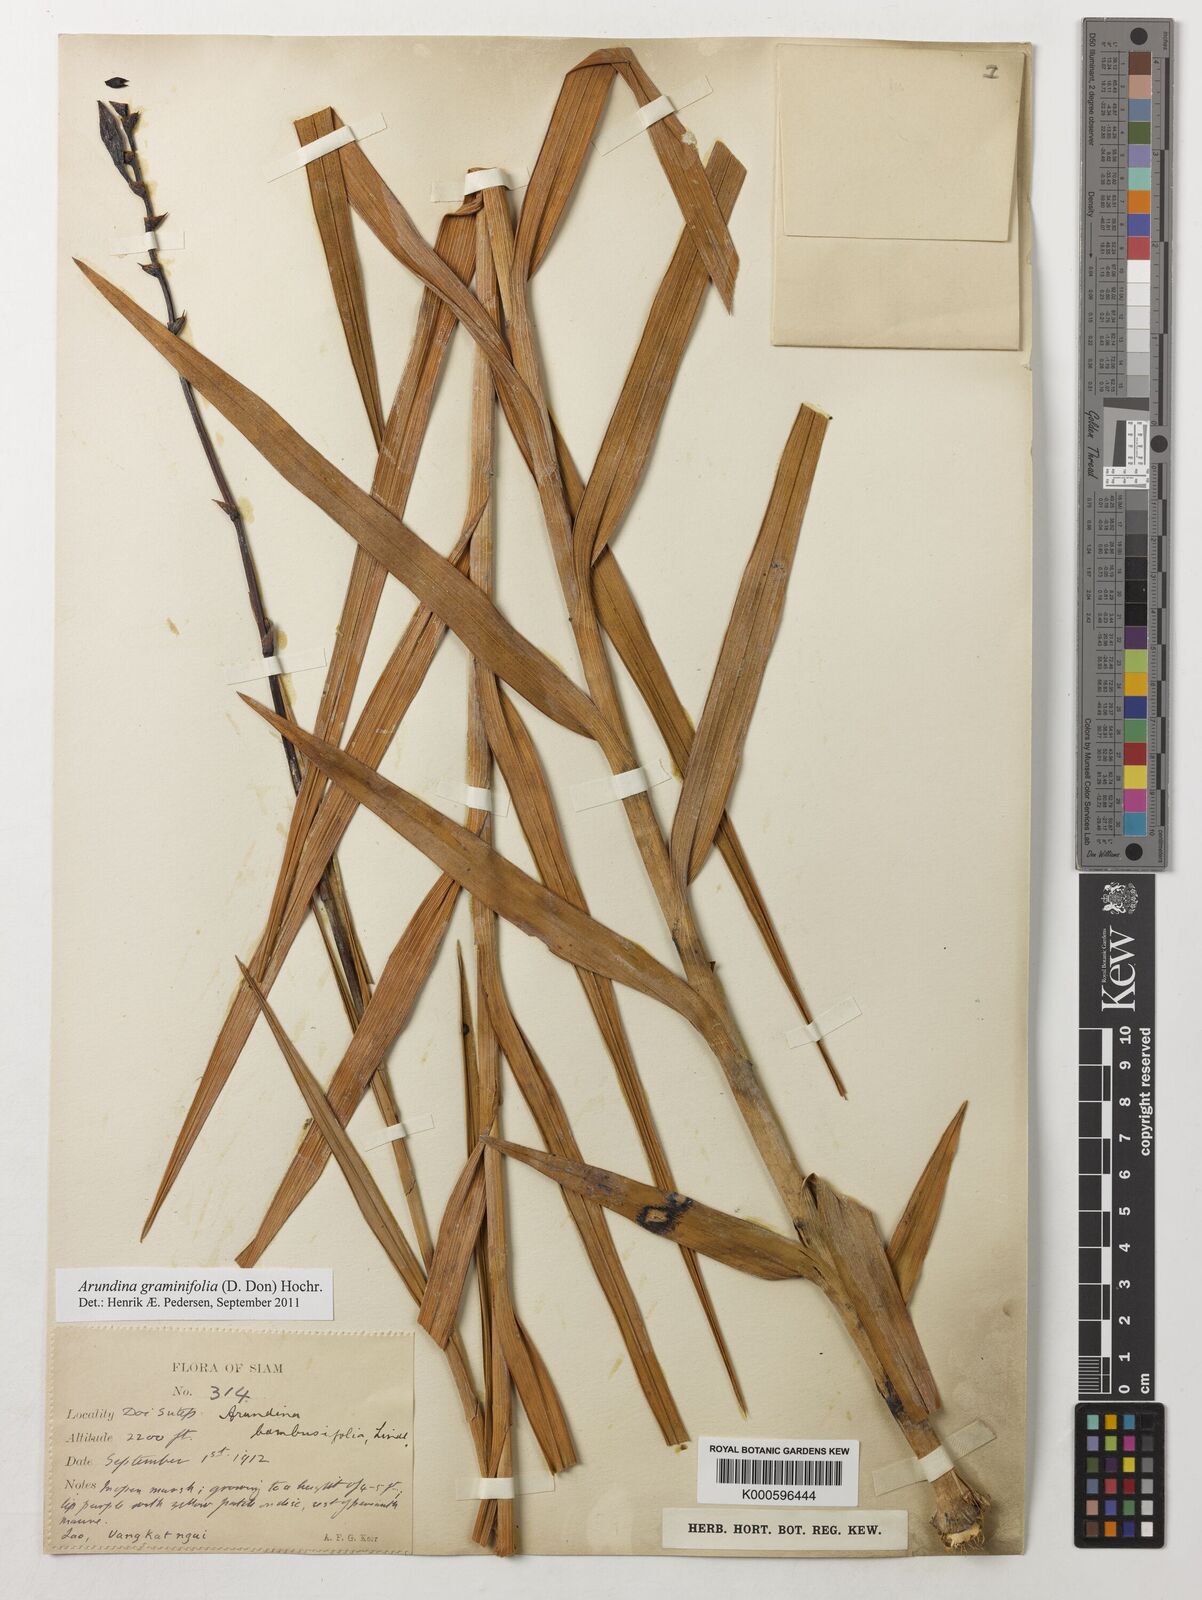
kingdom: Plantae
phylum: Tracheophyta
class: Liliopsida
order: Asparagales
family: Orchidaceae
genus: Arundina
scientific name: Arundina graminifolia
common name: Bamboo orchid
